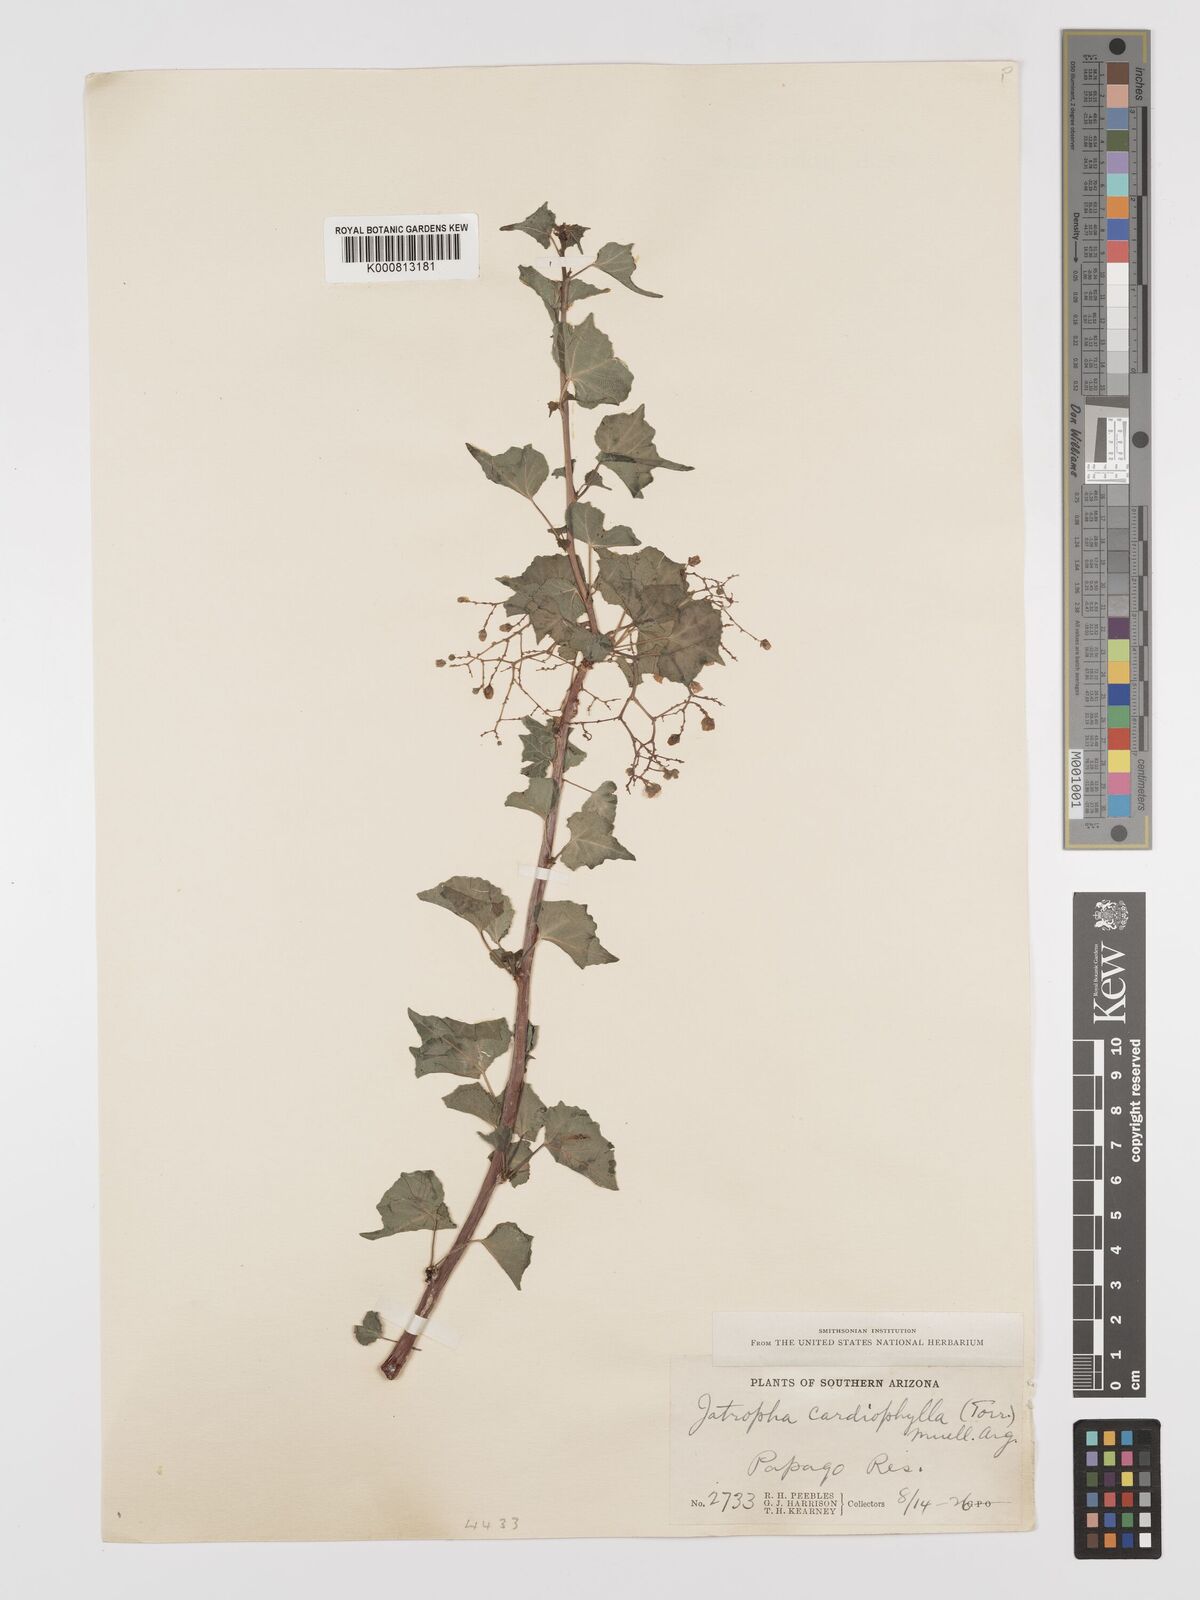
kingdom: Plantae
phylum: Tracheophyta
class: Magnoliopsida
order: Malpighiales
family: Euphorbiaceae
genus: Jatropha
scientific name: Jatropha
